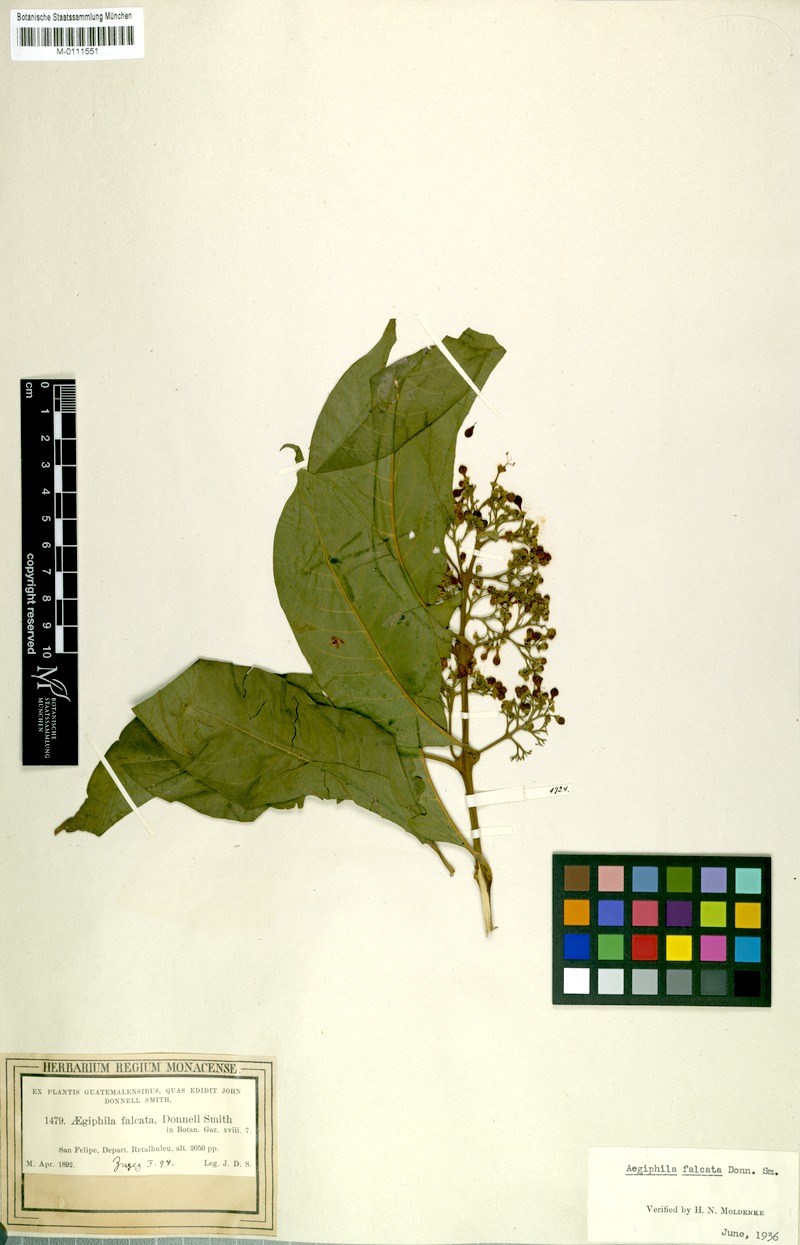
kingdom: Plantae
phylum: Tracheophyta
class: Magnoliopsida
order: Lamiales
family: Lamiaceae
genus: Aegiphila
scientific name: Aegiphila falcata
